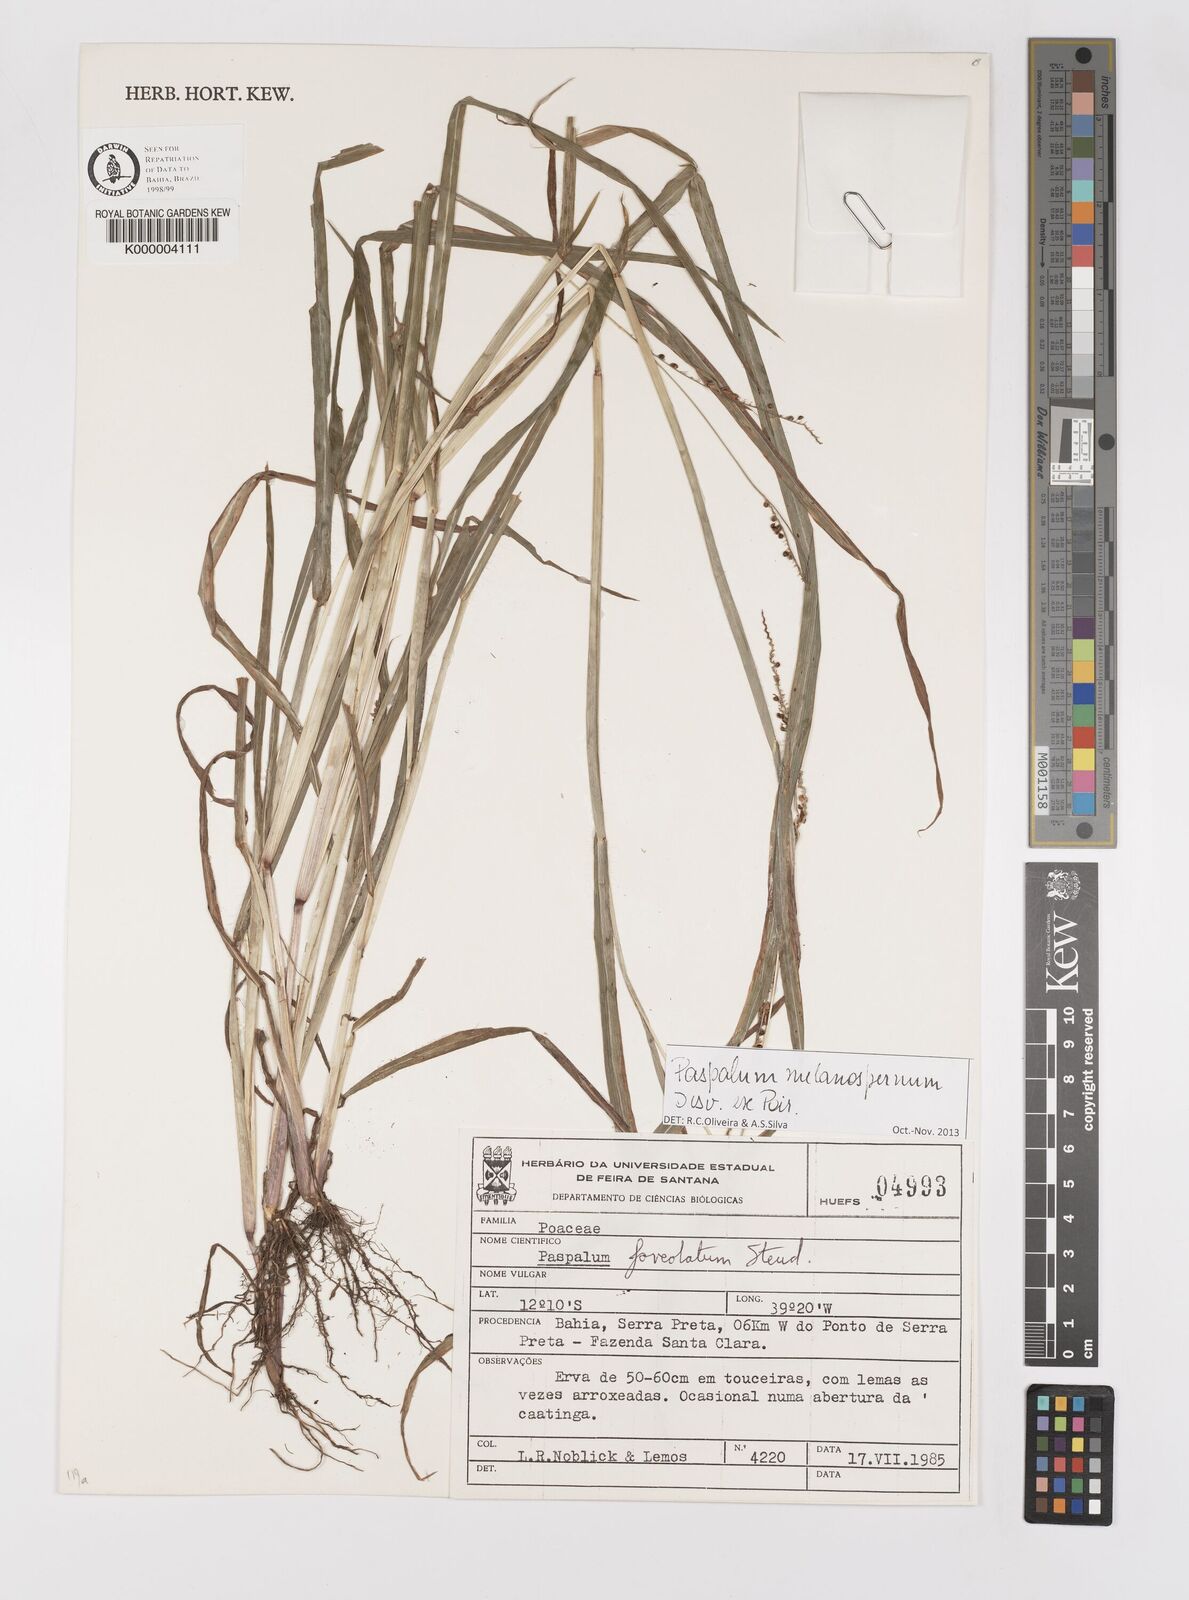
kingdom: Plantae
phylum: Tracheophyta
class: Liliopsida
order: Poales
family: Poaceae
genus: Paspalum
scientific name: Paspalum melanospermum
